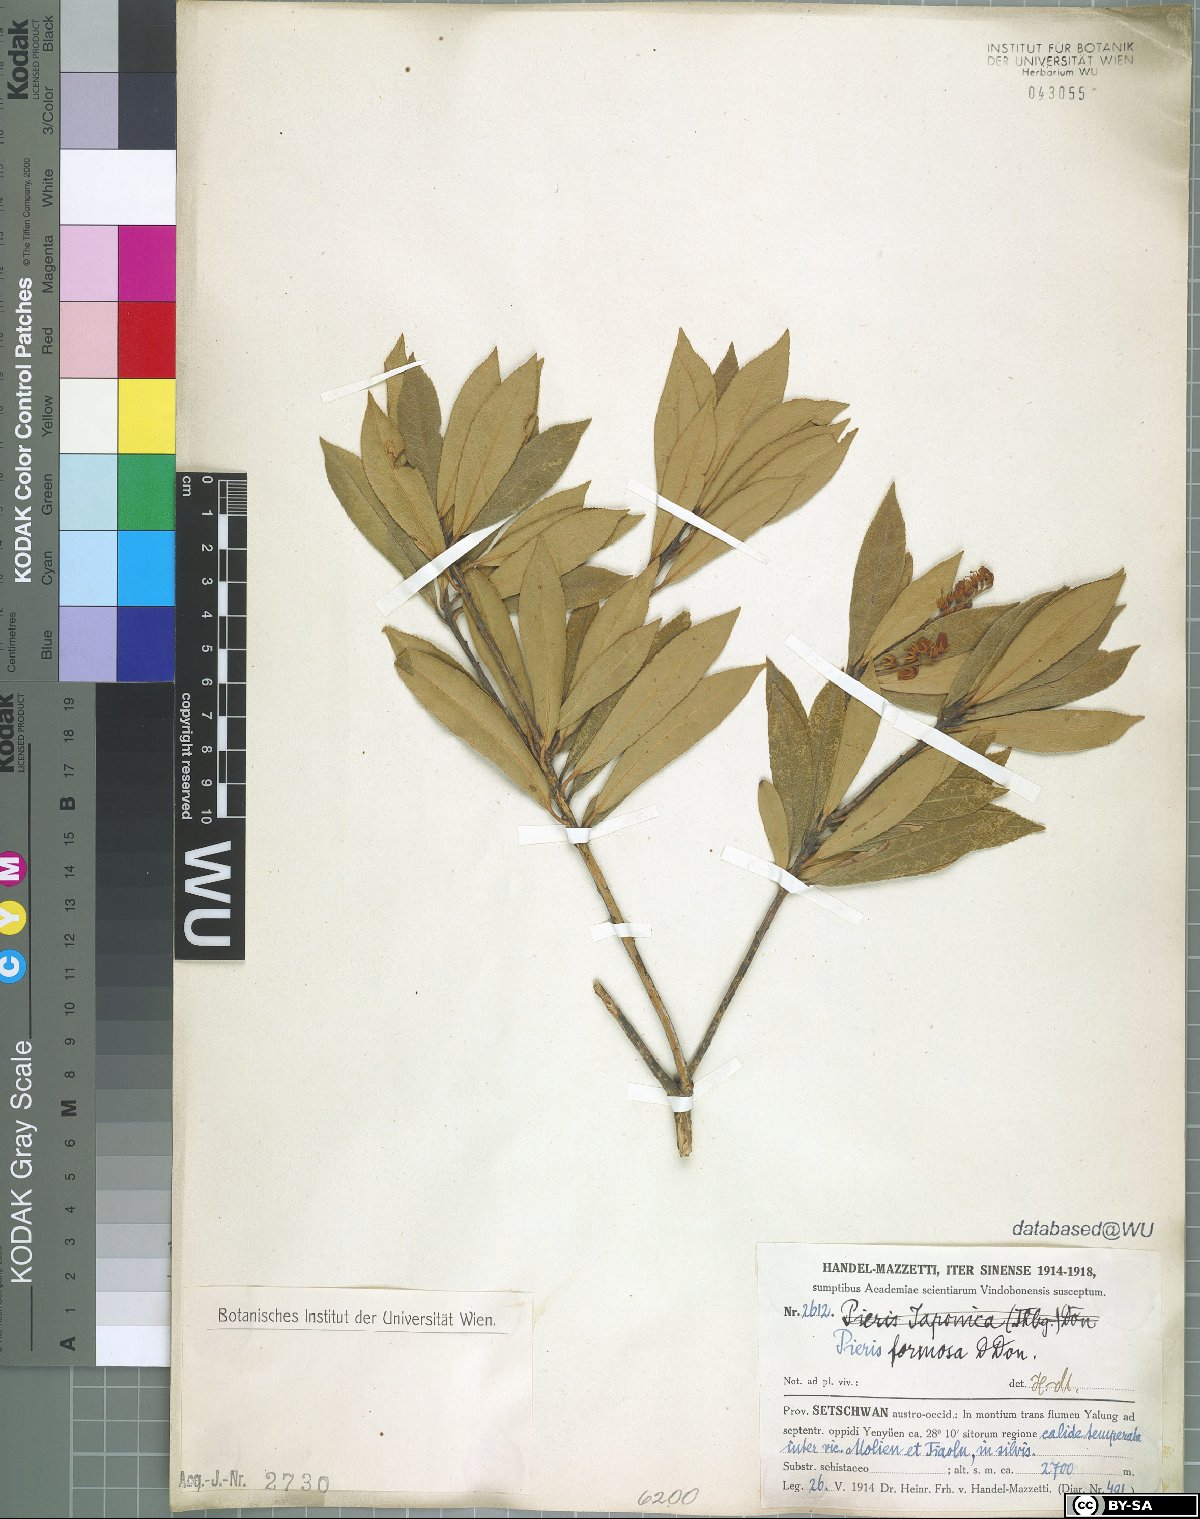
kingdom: Plantae
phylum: Tracheophyta
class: Magnoliopsida
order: Ericales
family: Ericaceae
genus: Pieris
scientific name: Pieris formosa
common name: Formosan pieris
